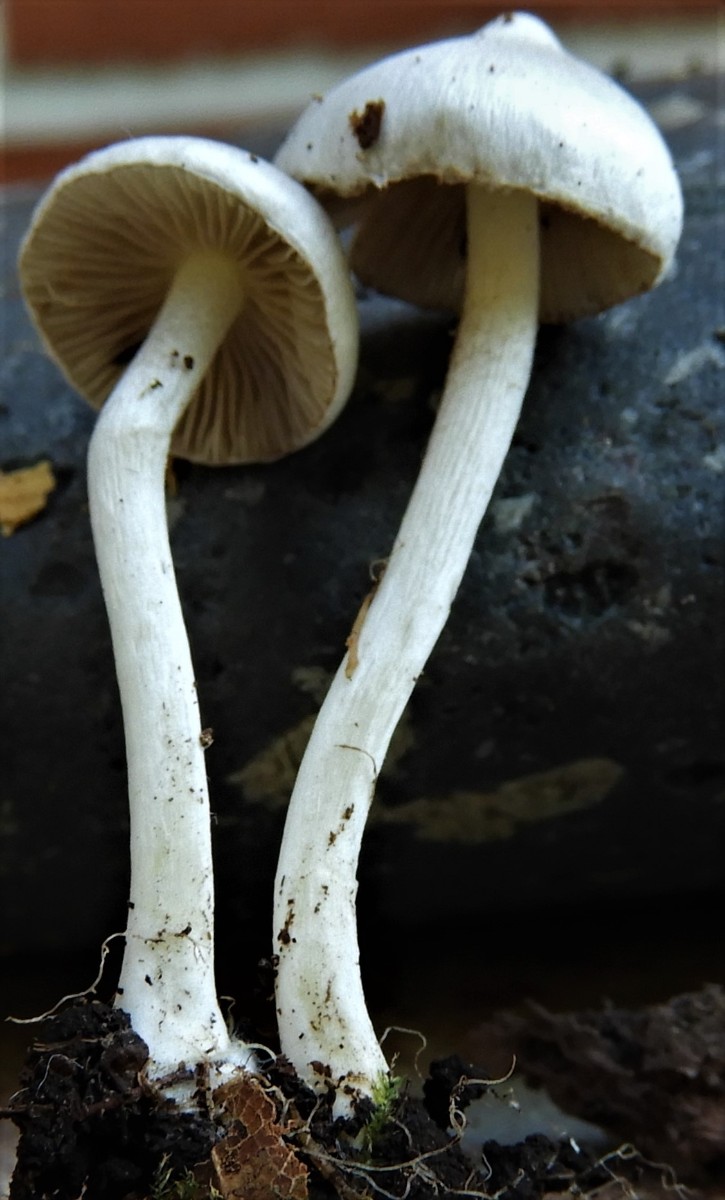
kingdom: Fungi
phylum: Basidiomycota
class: Agaricomycetes
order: Agaricales
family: Inocybaceae
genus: Inocybe
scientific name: Inocybe
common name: trævlhat
